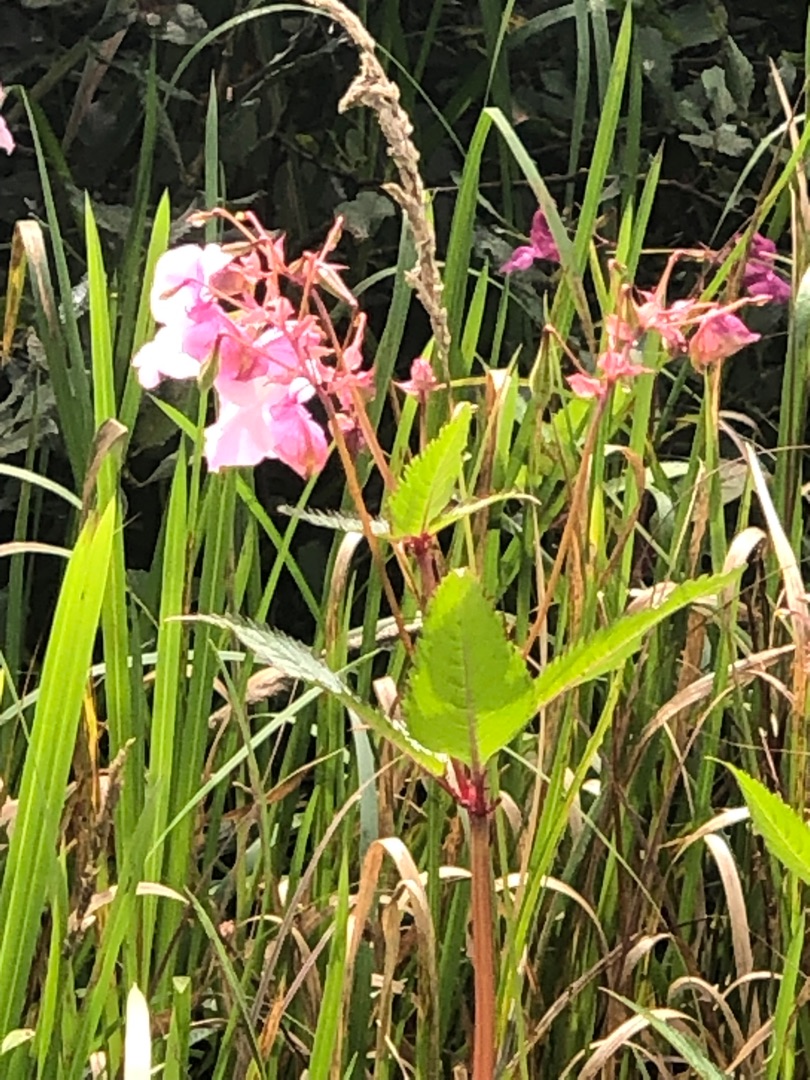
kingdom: Plantae
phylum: Tracheophyta
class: Magnoliopsida
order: Ericales
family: Balsaminaceae
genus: Impatiens
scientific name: Impatiens glandulifera
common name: Kæmpe-balsamin
